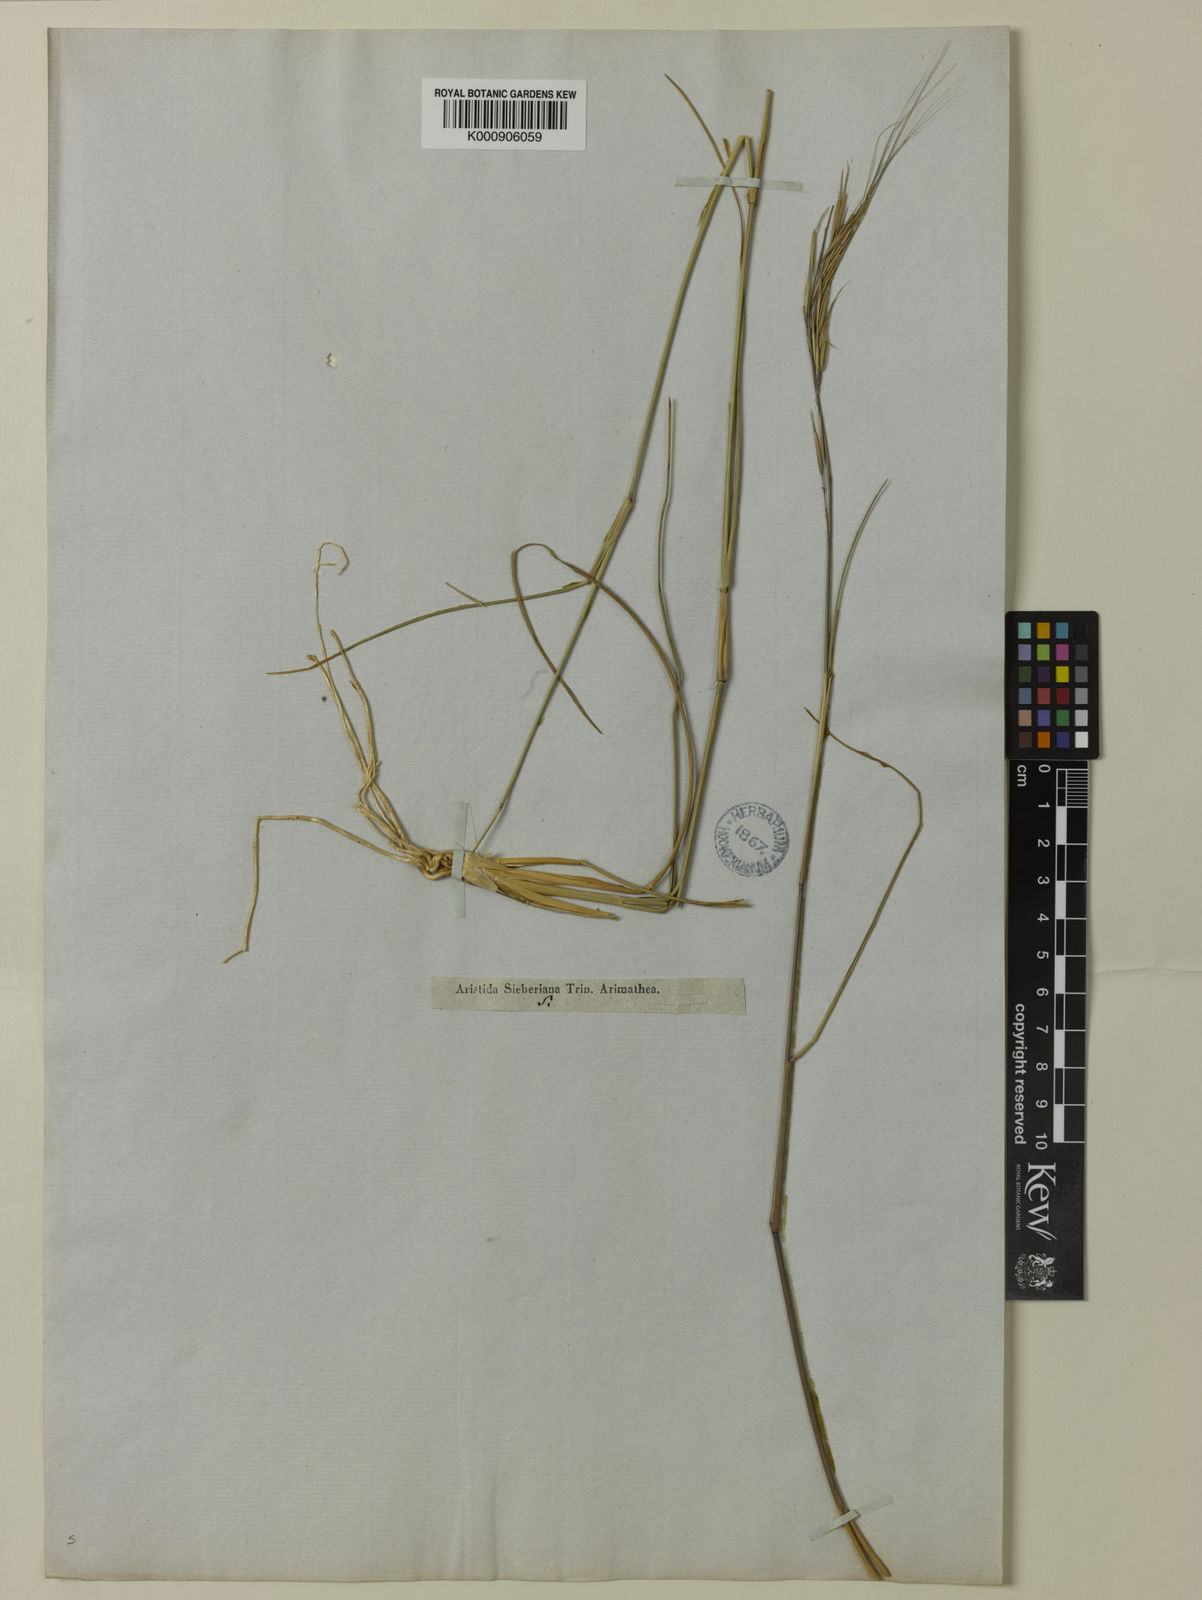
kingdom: Plantae
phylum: Tracheophyta
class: Liliopsida
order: Poales
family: Poaceae
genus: Aristida
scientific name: Aristida
